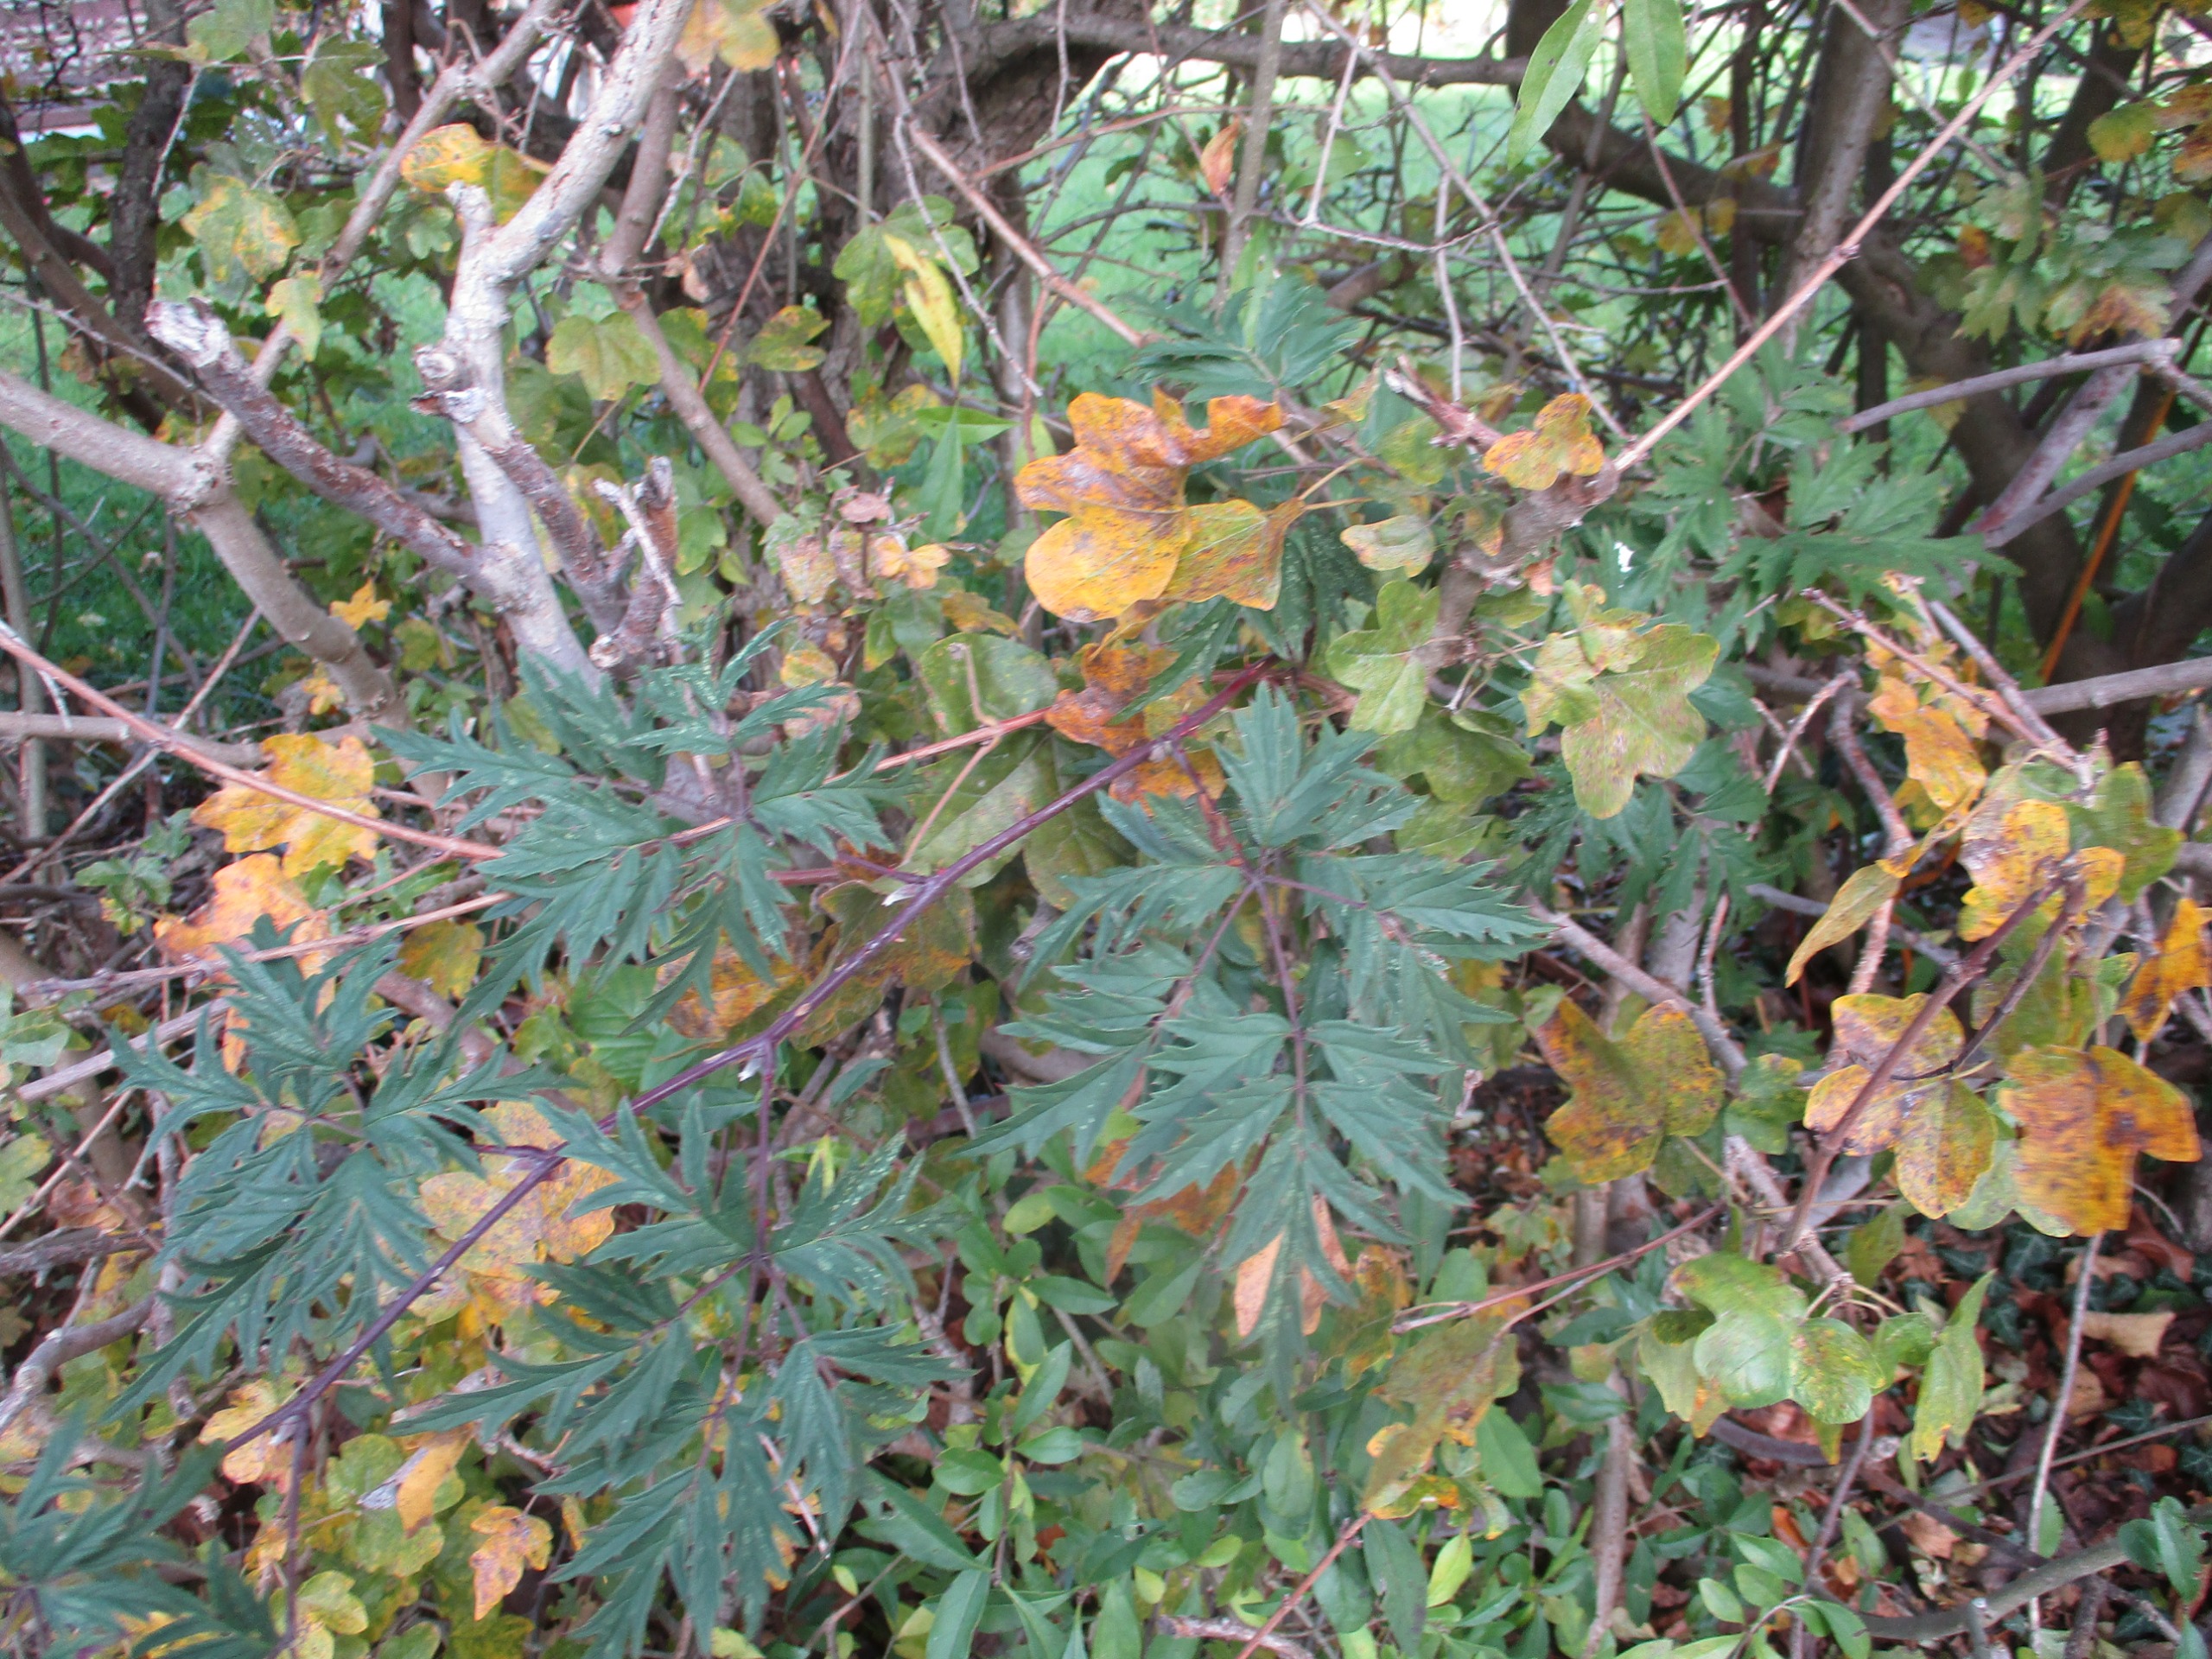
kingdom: Plantae
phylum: Tracheophyta
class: Magnoliopsida
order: Rosales
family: Rosaceae
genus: Rubus
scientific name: Rubus laciniatus
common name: Fliget brombær
